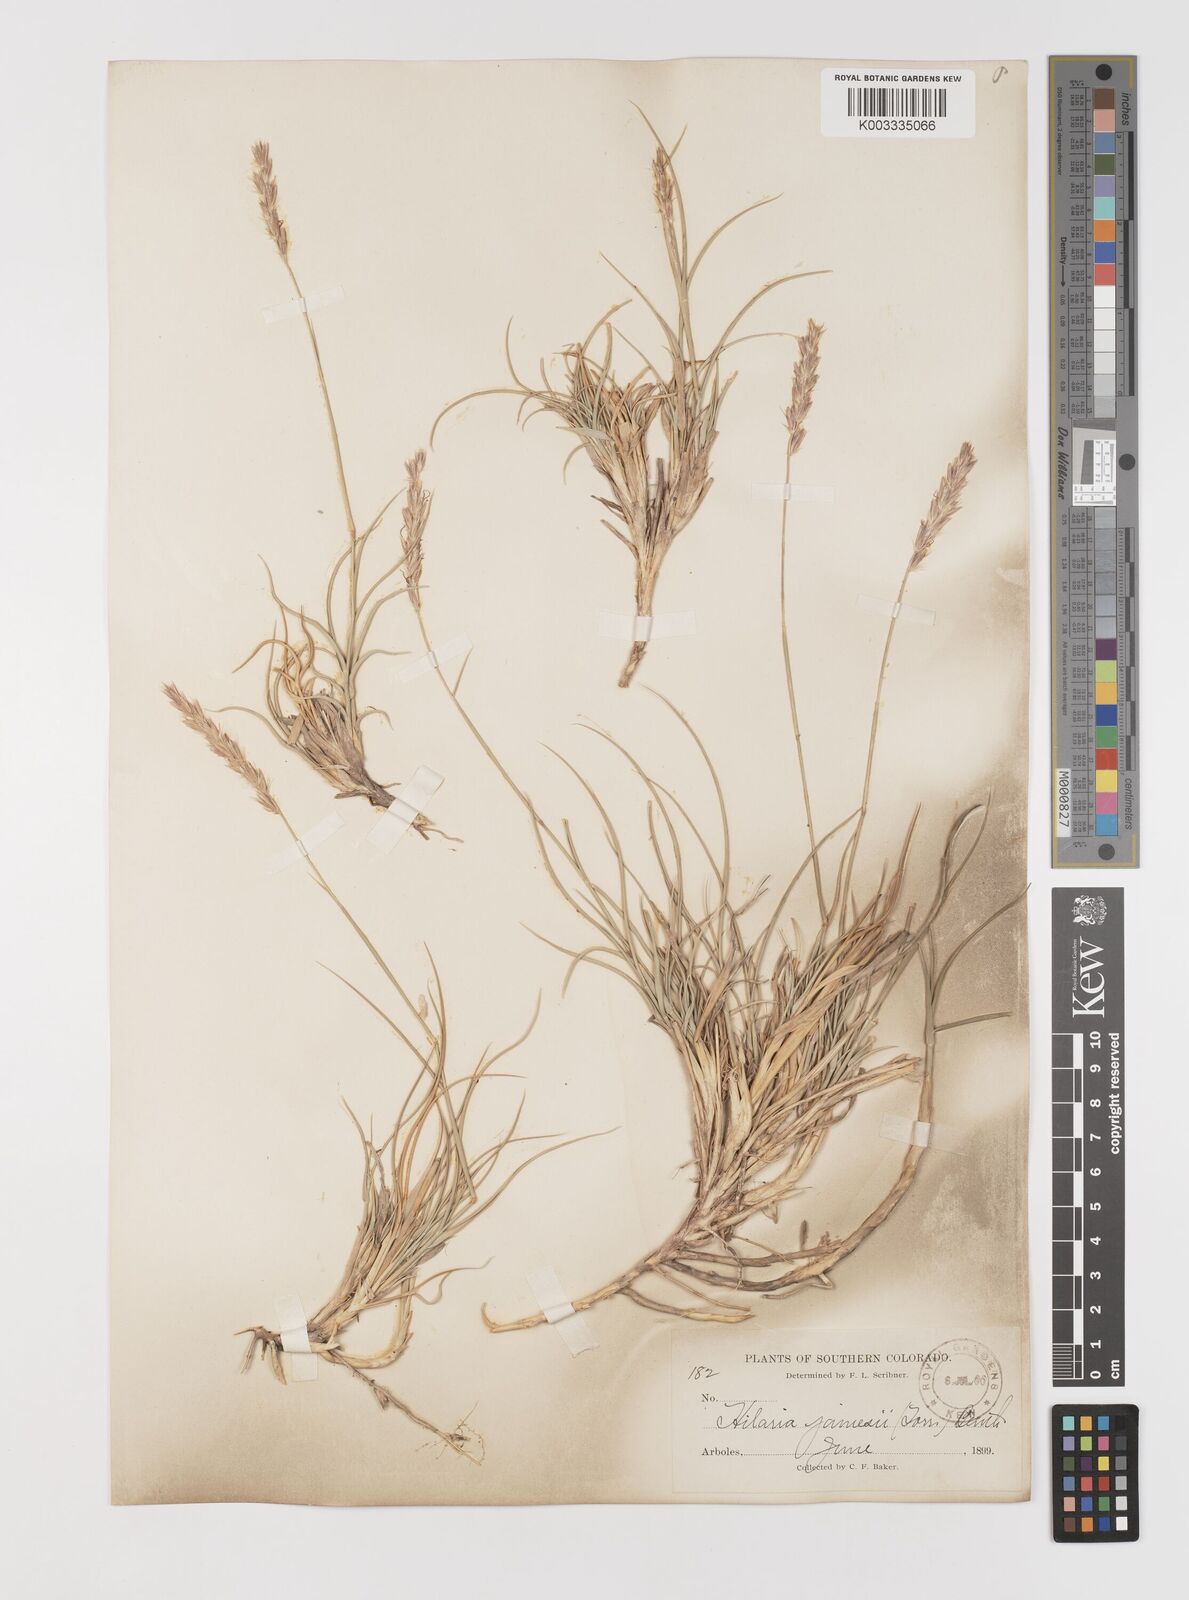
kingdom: Plantae
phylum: Tracheophyta
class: Liliopsida
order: Poales
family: Poaceae
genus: Hilaria
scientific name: Hilaria jamesii
